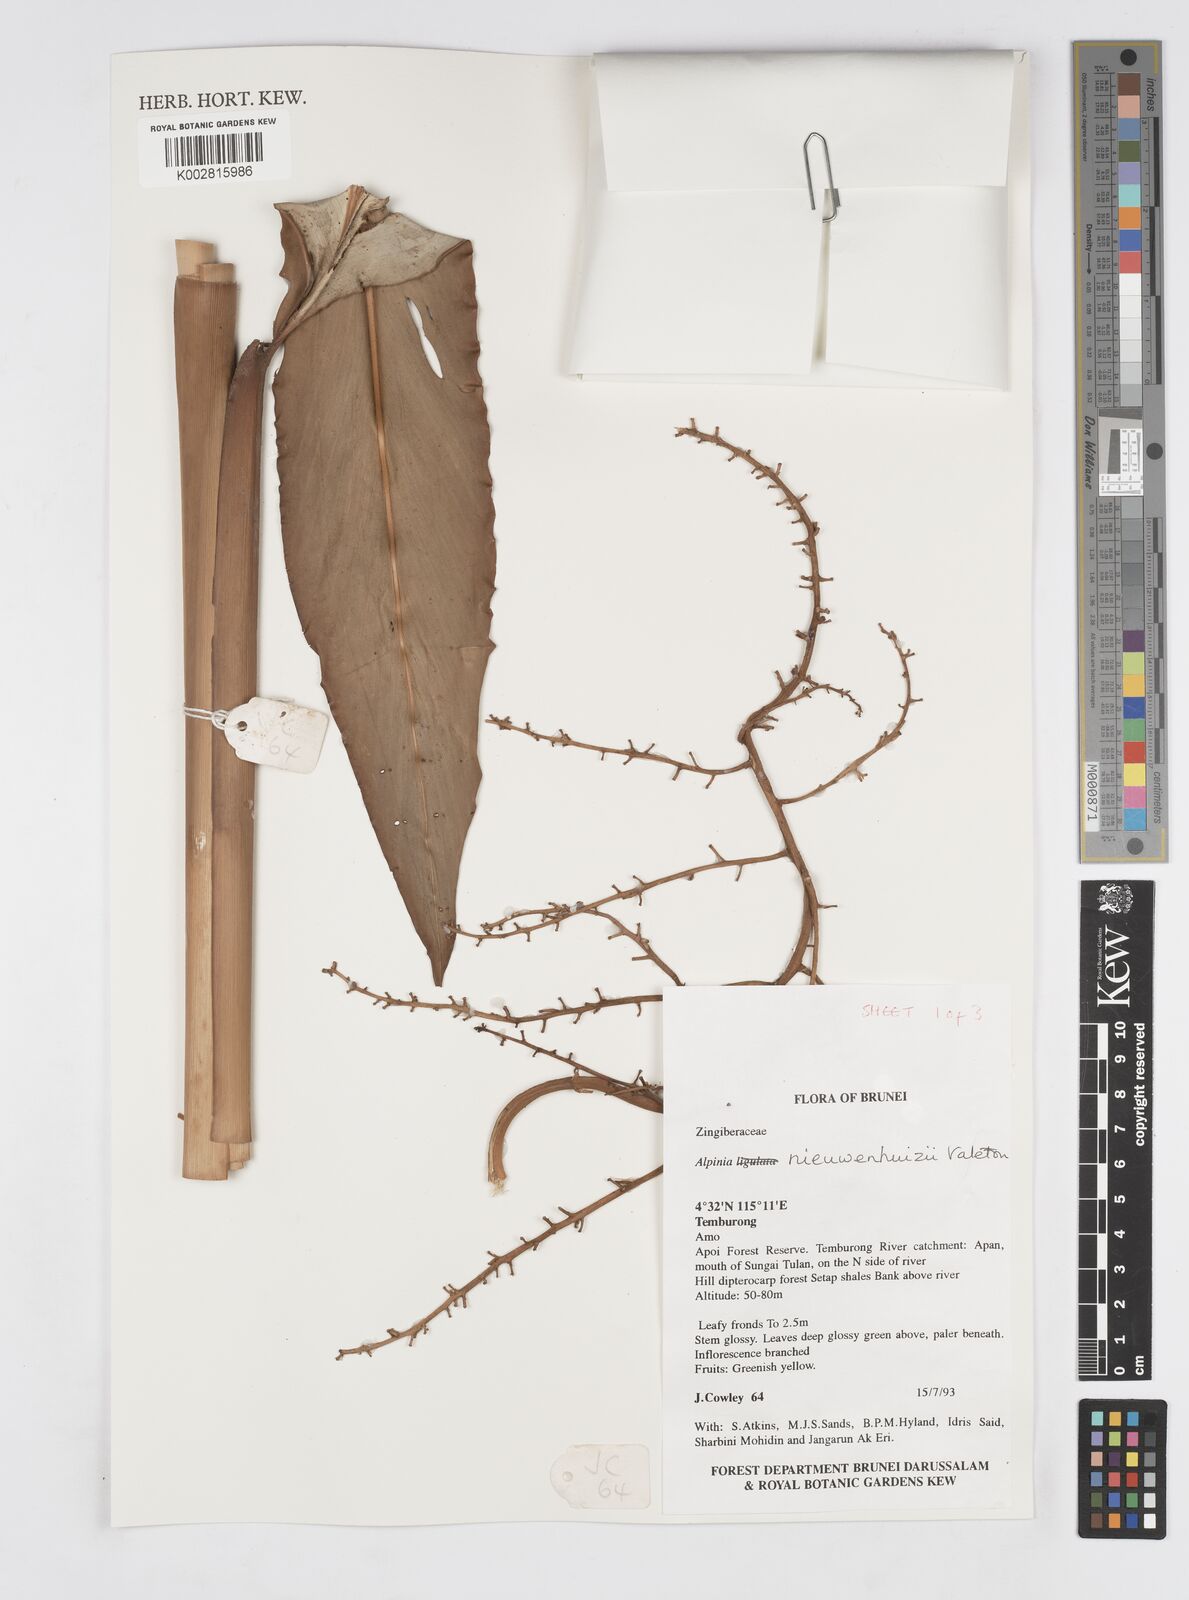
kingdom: Plantae
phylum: Tracheophyta
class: Liliopsida
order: Zingiberales
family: Zingiberaceae
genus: Alpinia
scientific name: Alpinia nieuwenhuizii
